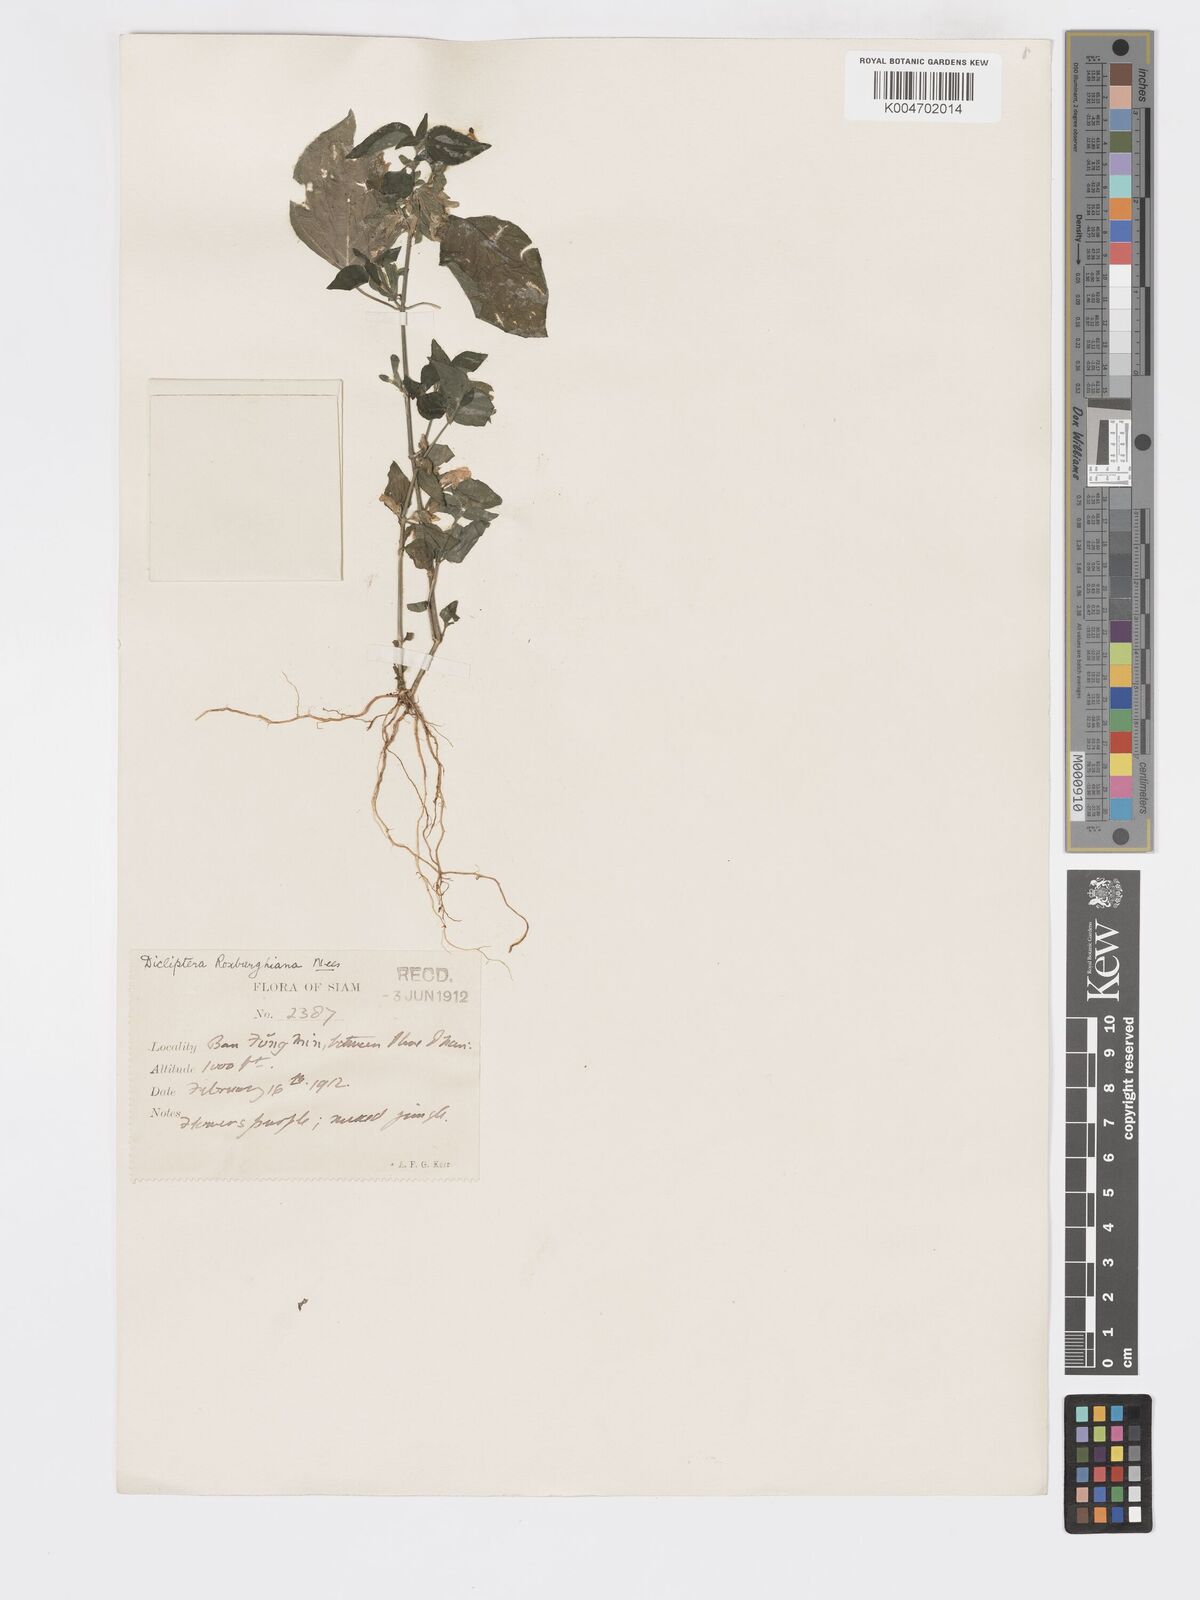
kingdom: Plantae
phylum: Tracheophyta
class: Magnoliopsida
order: Lamiales
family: Acanthaceae
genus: Dicliptera
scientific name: Dicliptera chinensis
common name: Chinese foldwing
